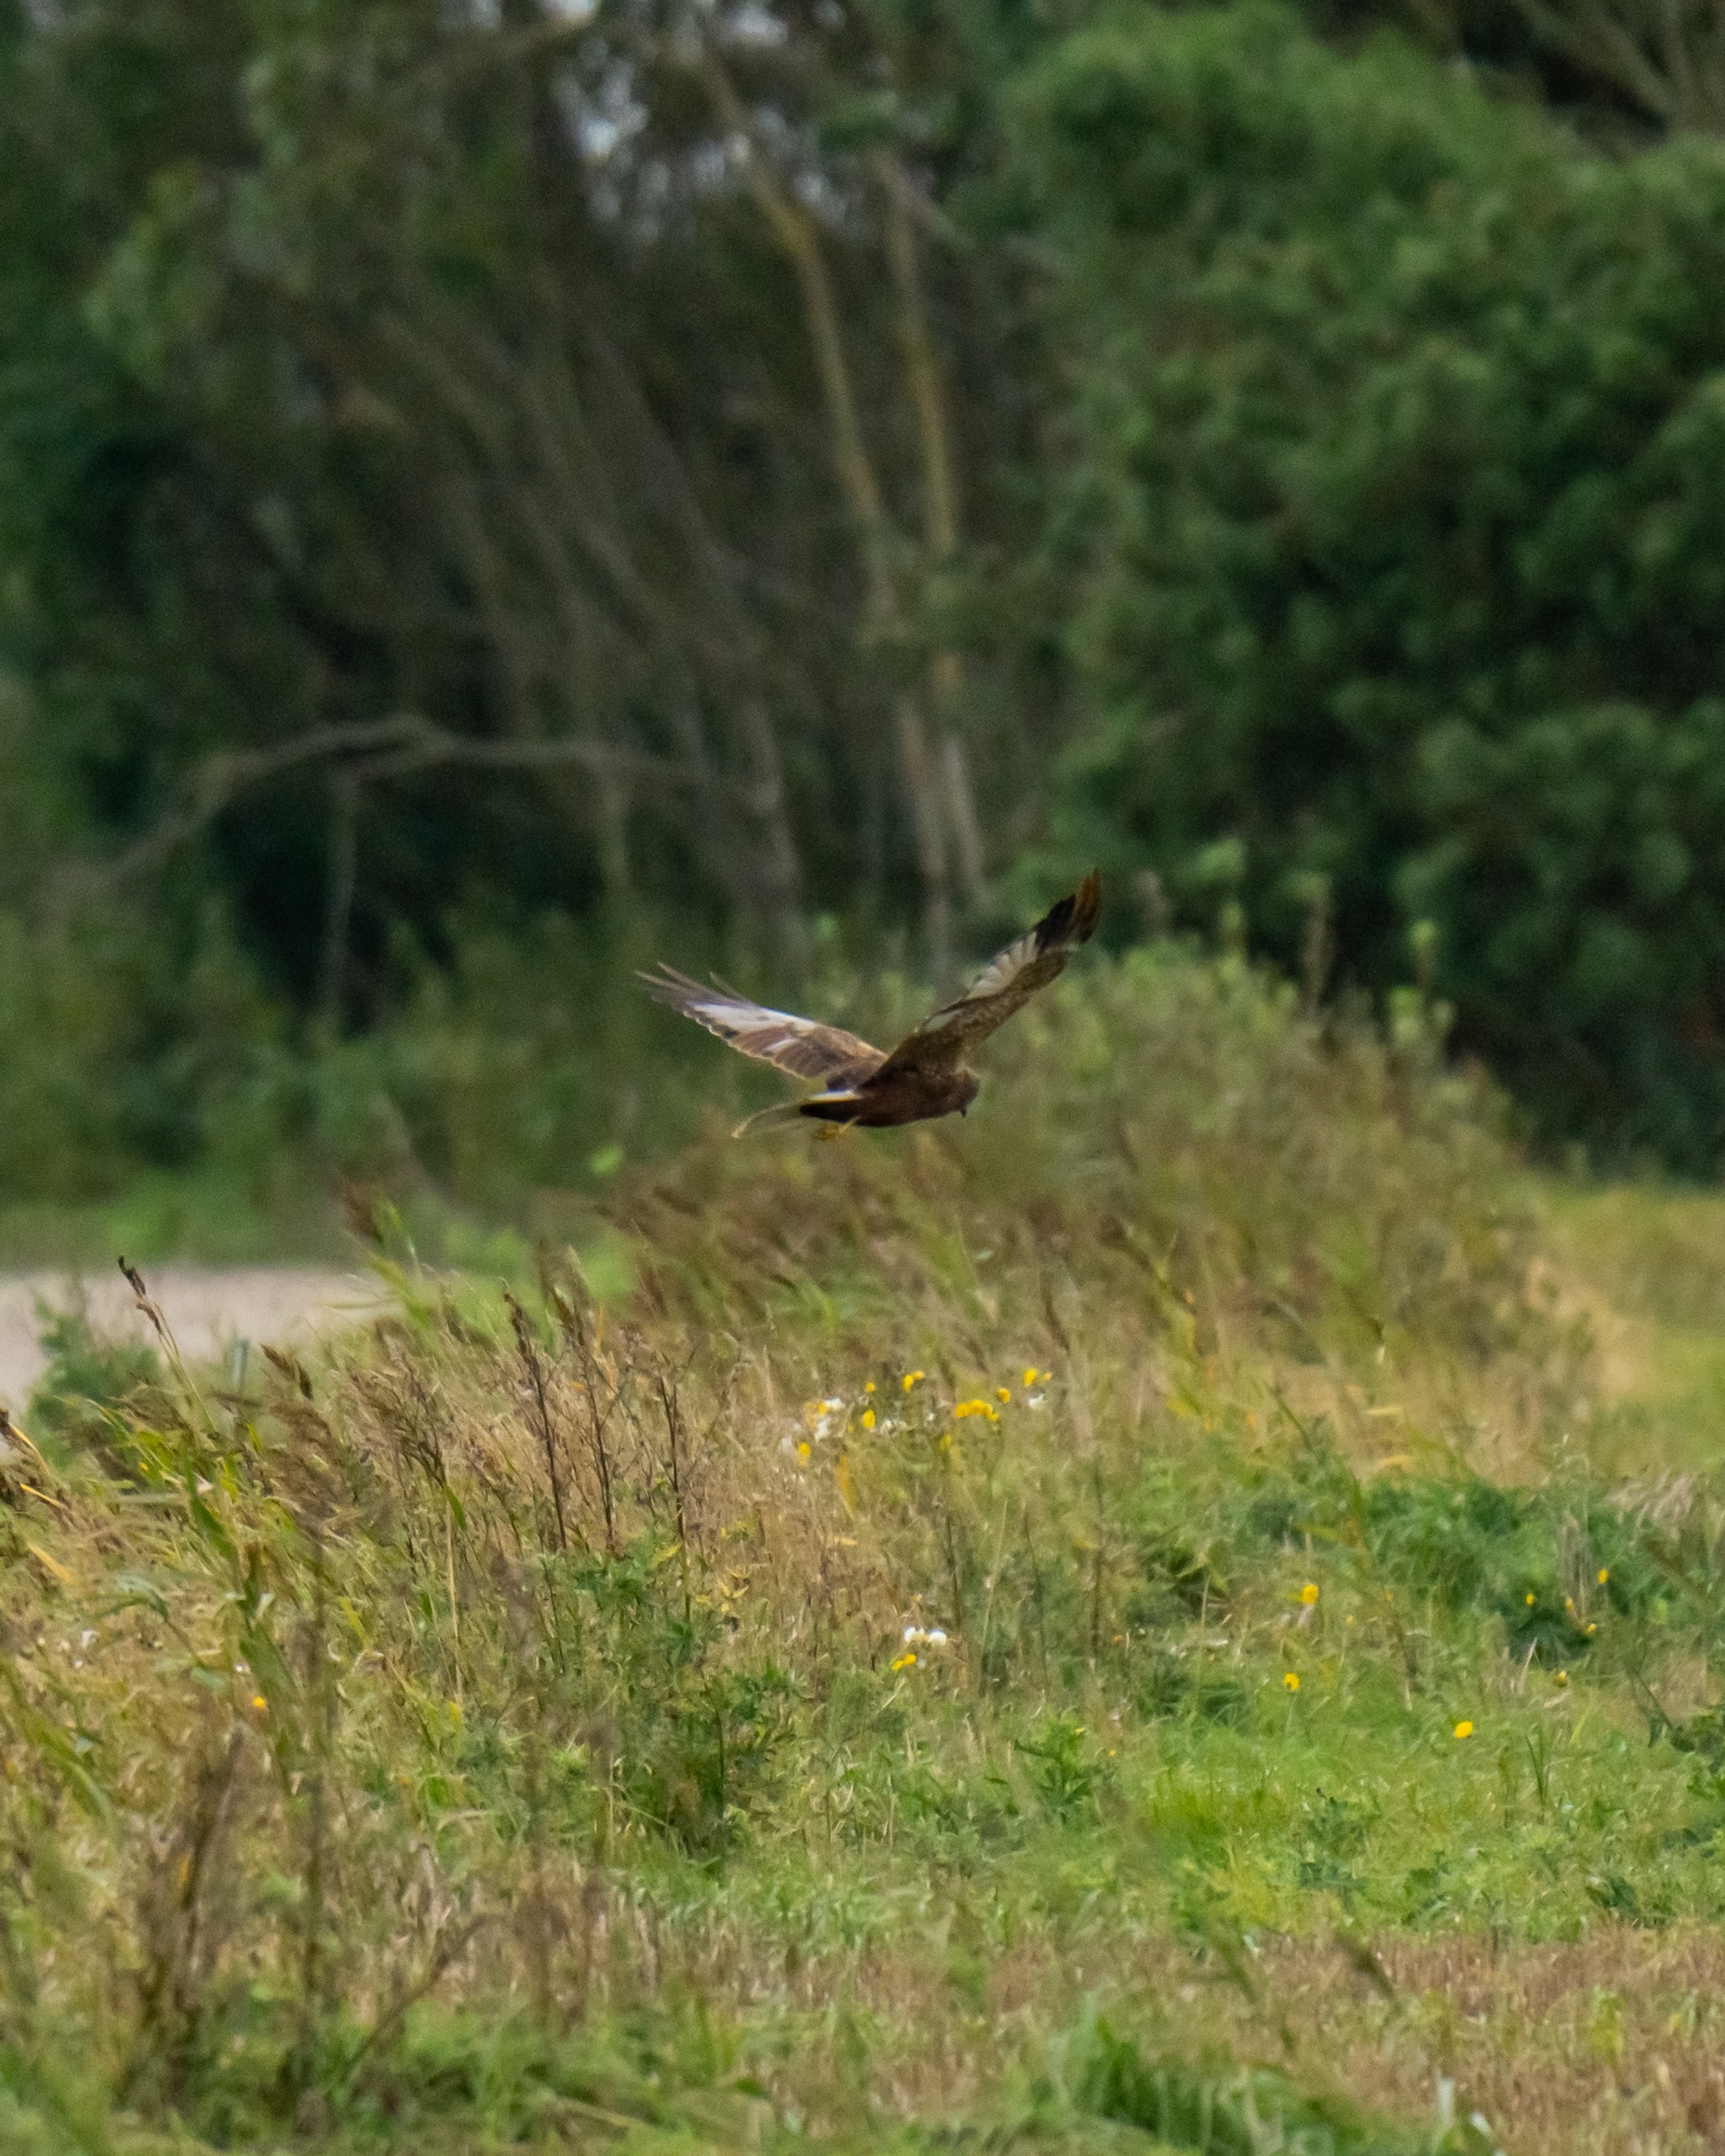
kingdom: Animalia
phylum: Chordata
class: Aves
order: Accipitriformes
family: Accipitridae
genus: Circus
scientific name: Circus aeruginosus
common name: Rørhøg
